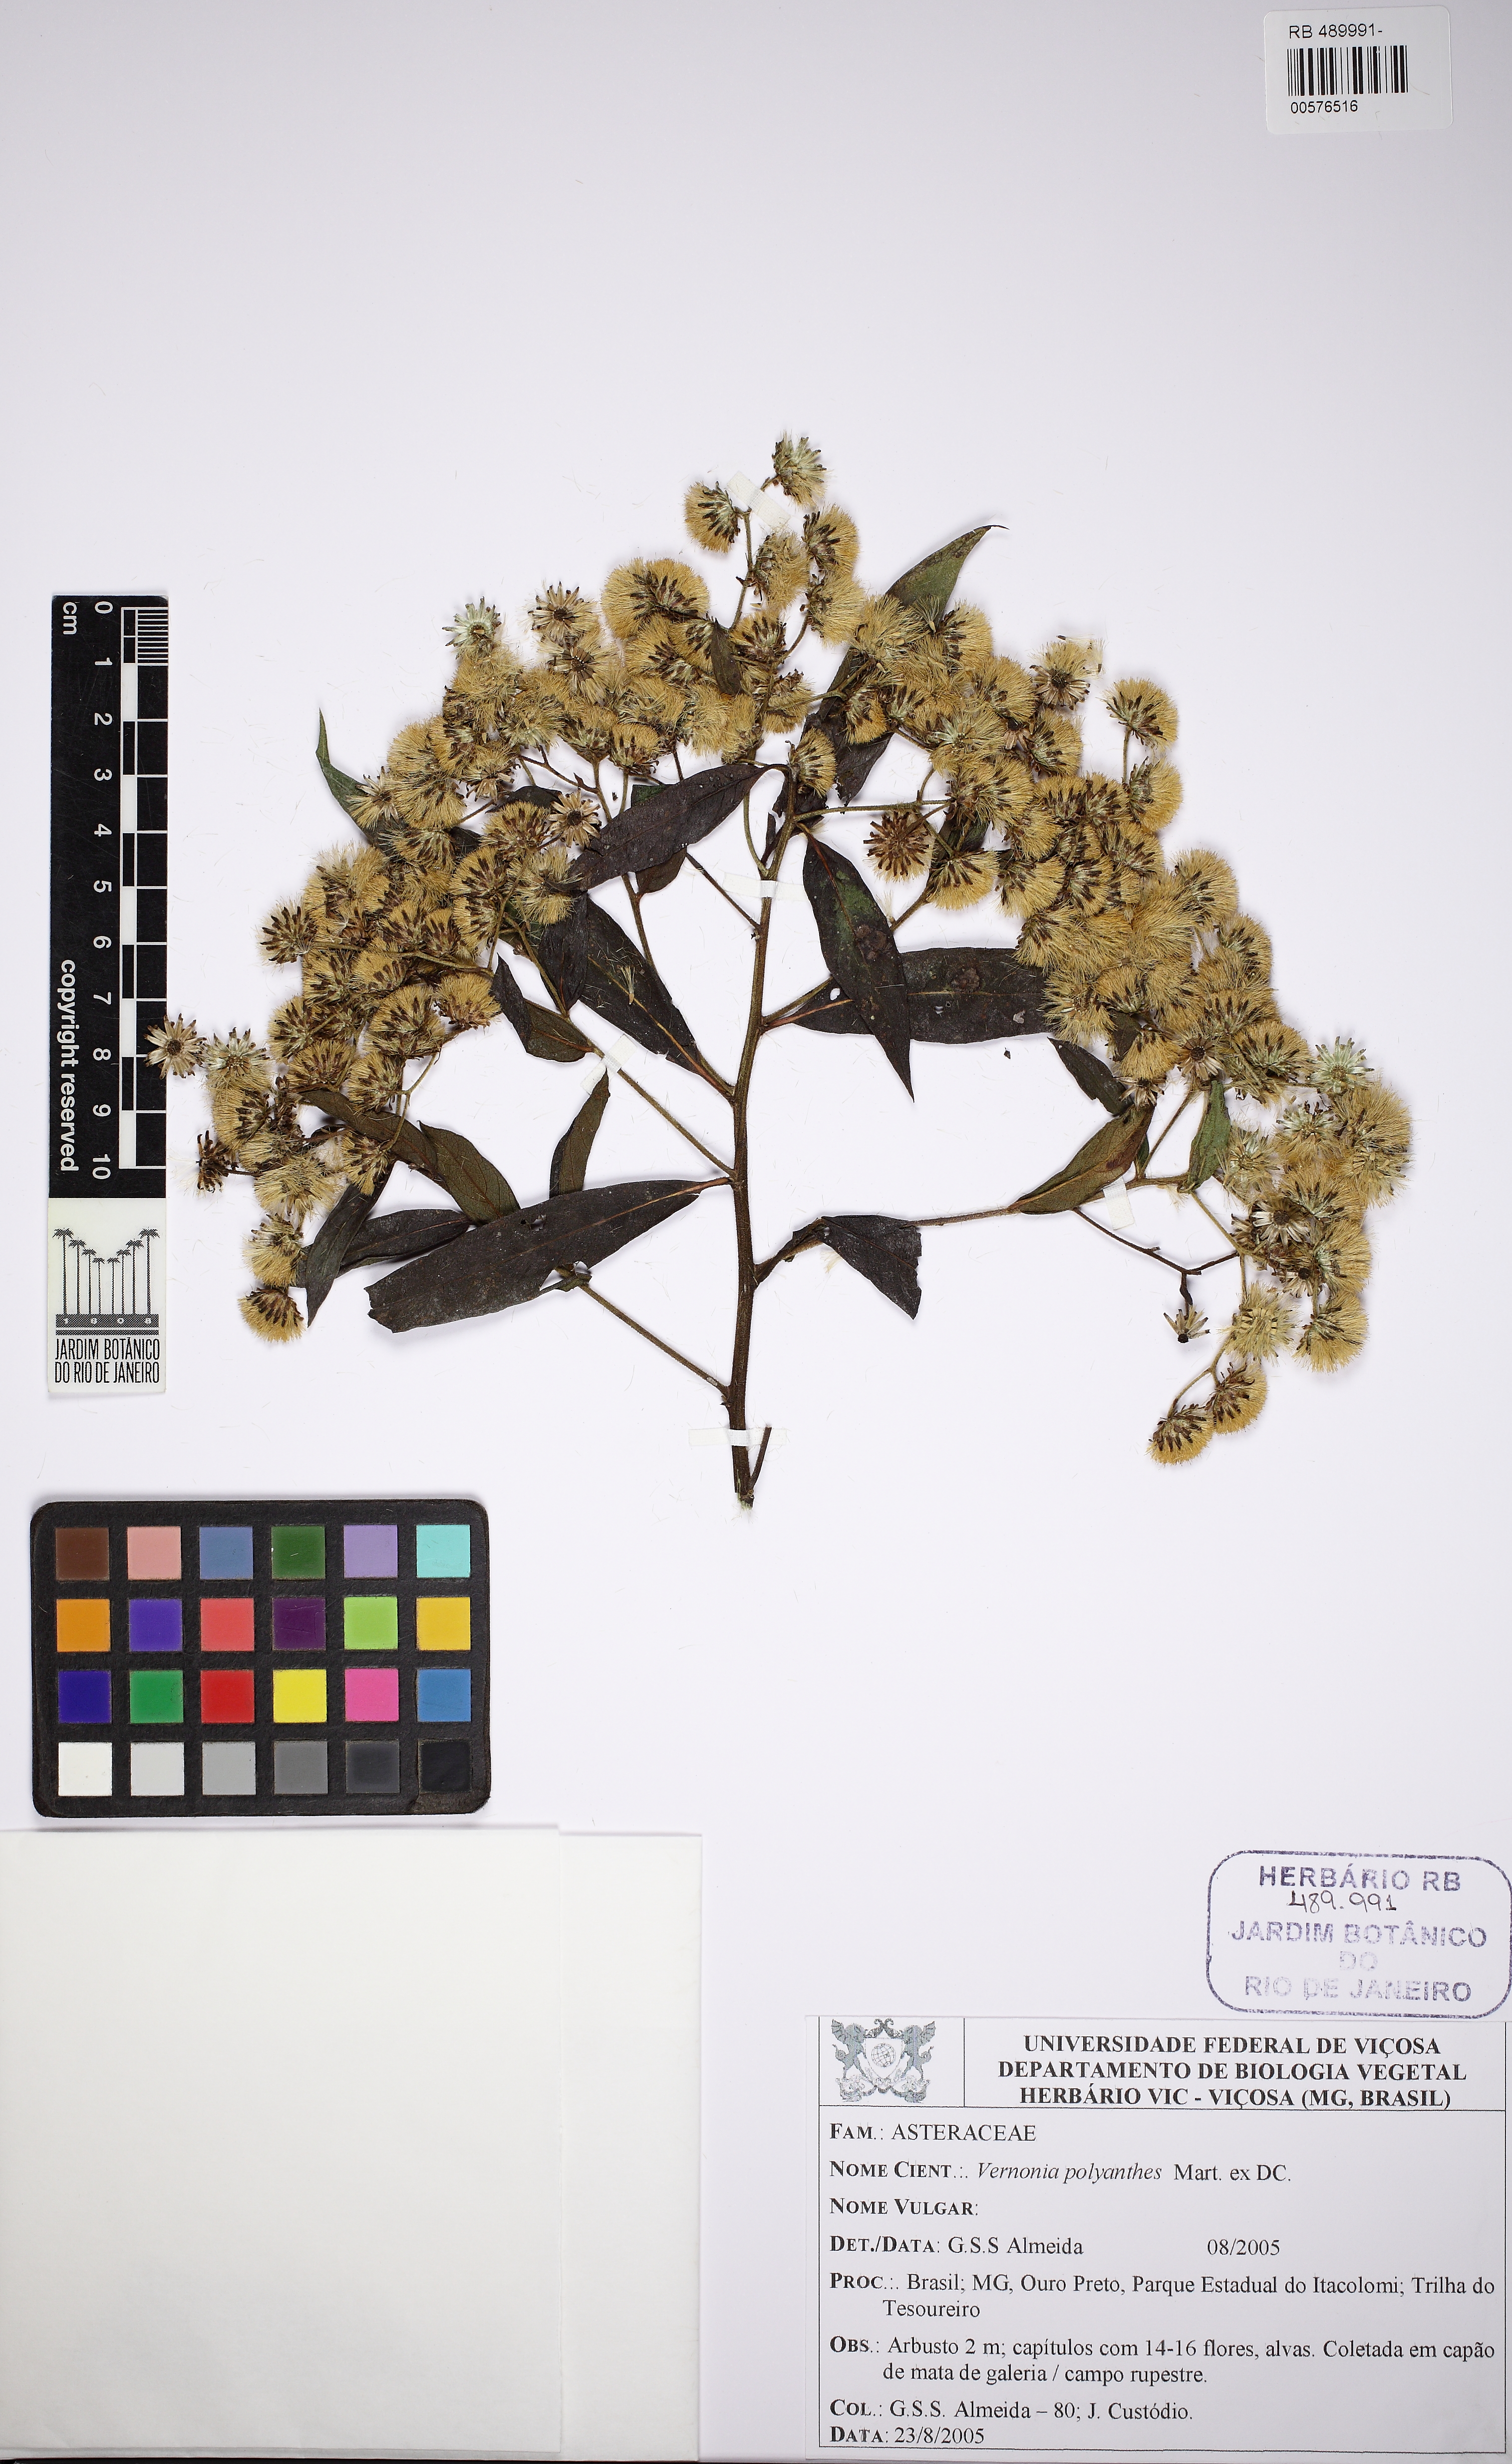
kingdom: Plantae
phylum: Tracheophyta
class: Magnoliopsida
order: Asterales
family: Asteraceae
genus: Vernonanthura
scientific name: Vernonanthura polyanthes
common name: Tree aster
